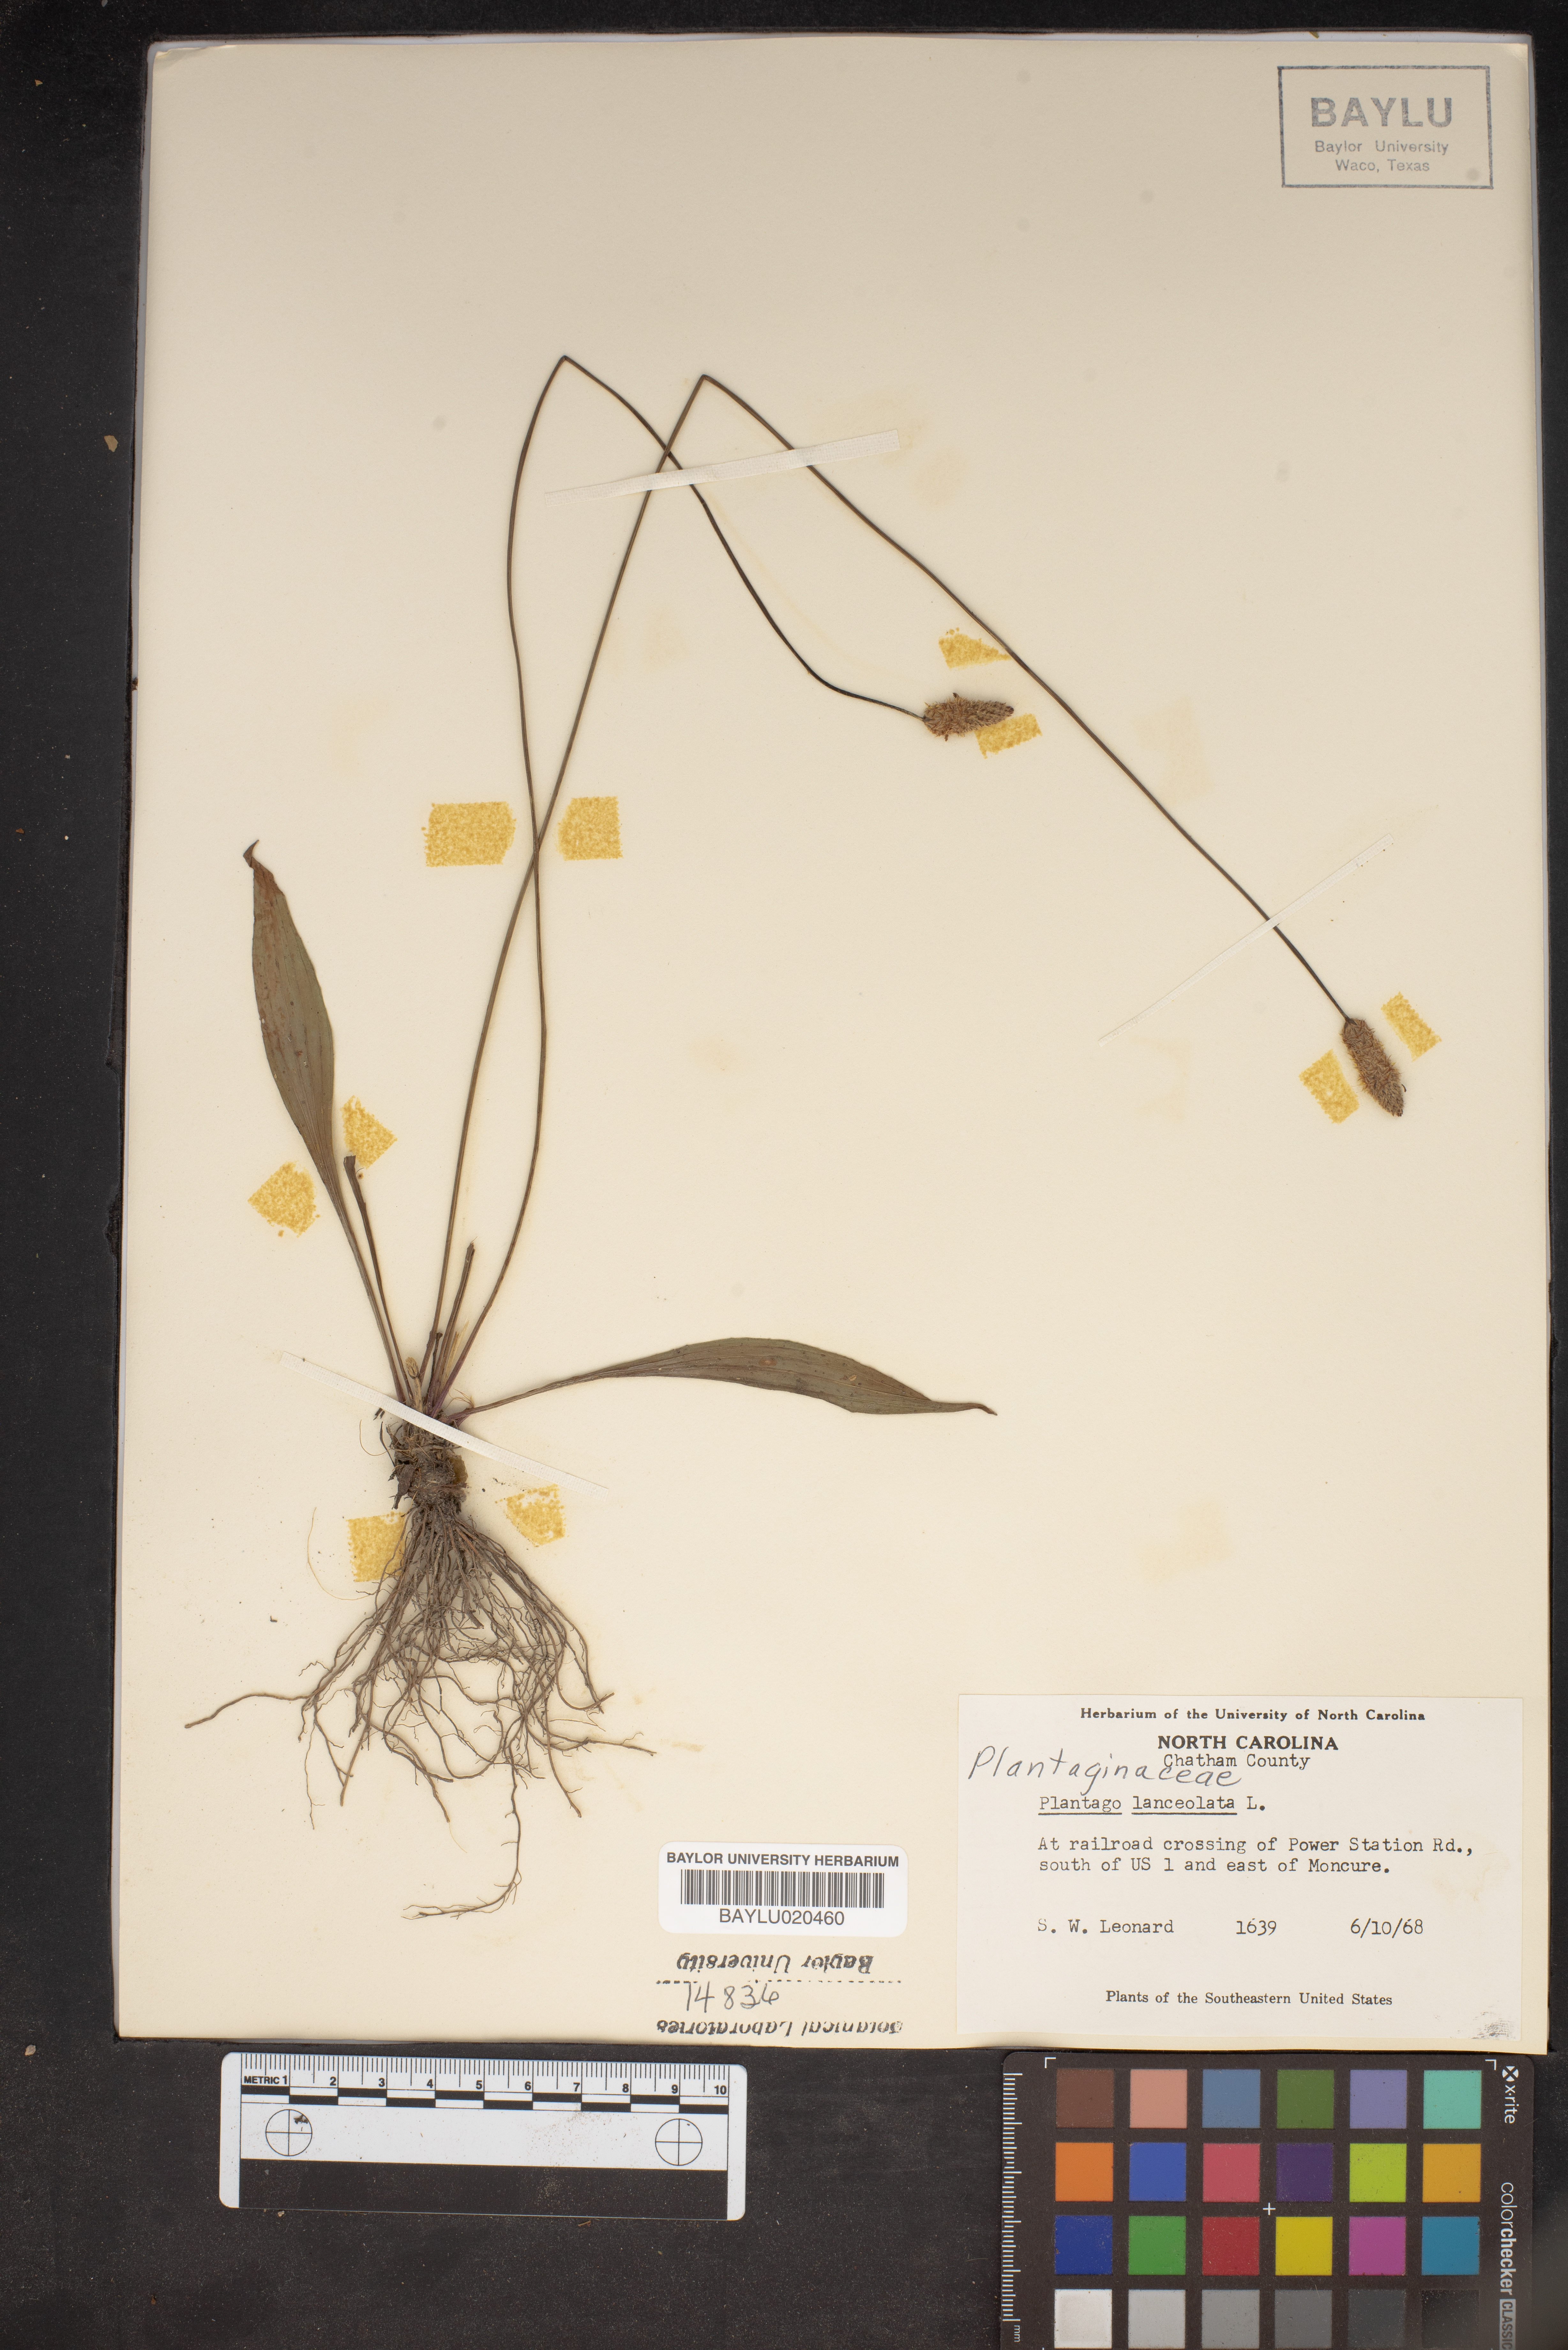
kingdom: Plantae
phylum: Tracheophyta
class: Magnoliopsida
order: Lamiales
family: Plantaginaceae
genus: Plantago
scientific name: Plantago lanceolata
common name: Ribwort plantain
